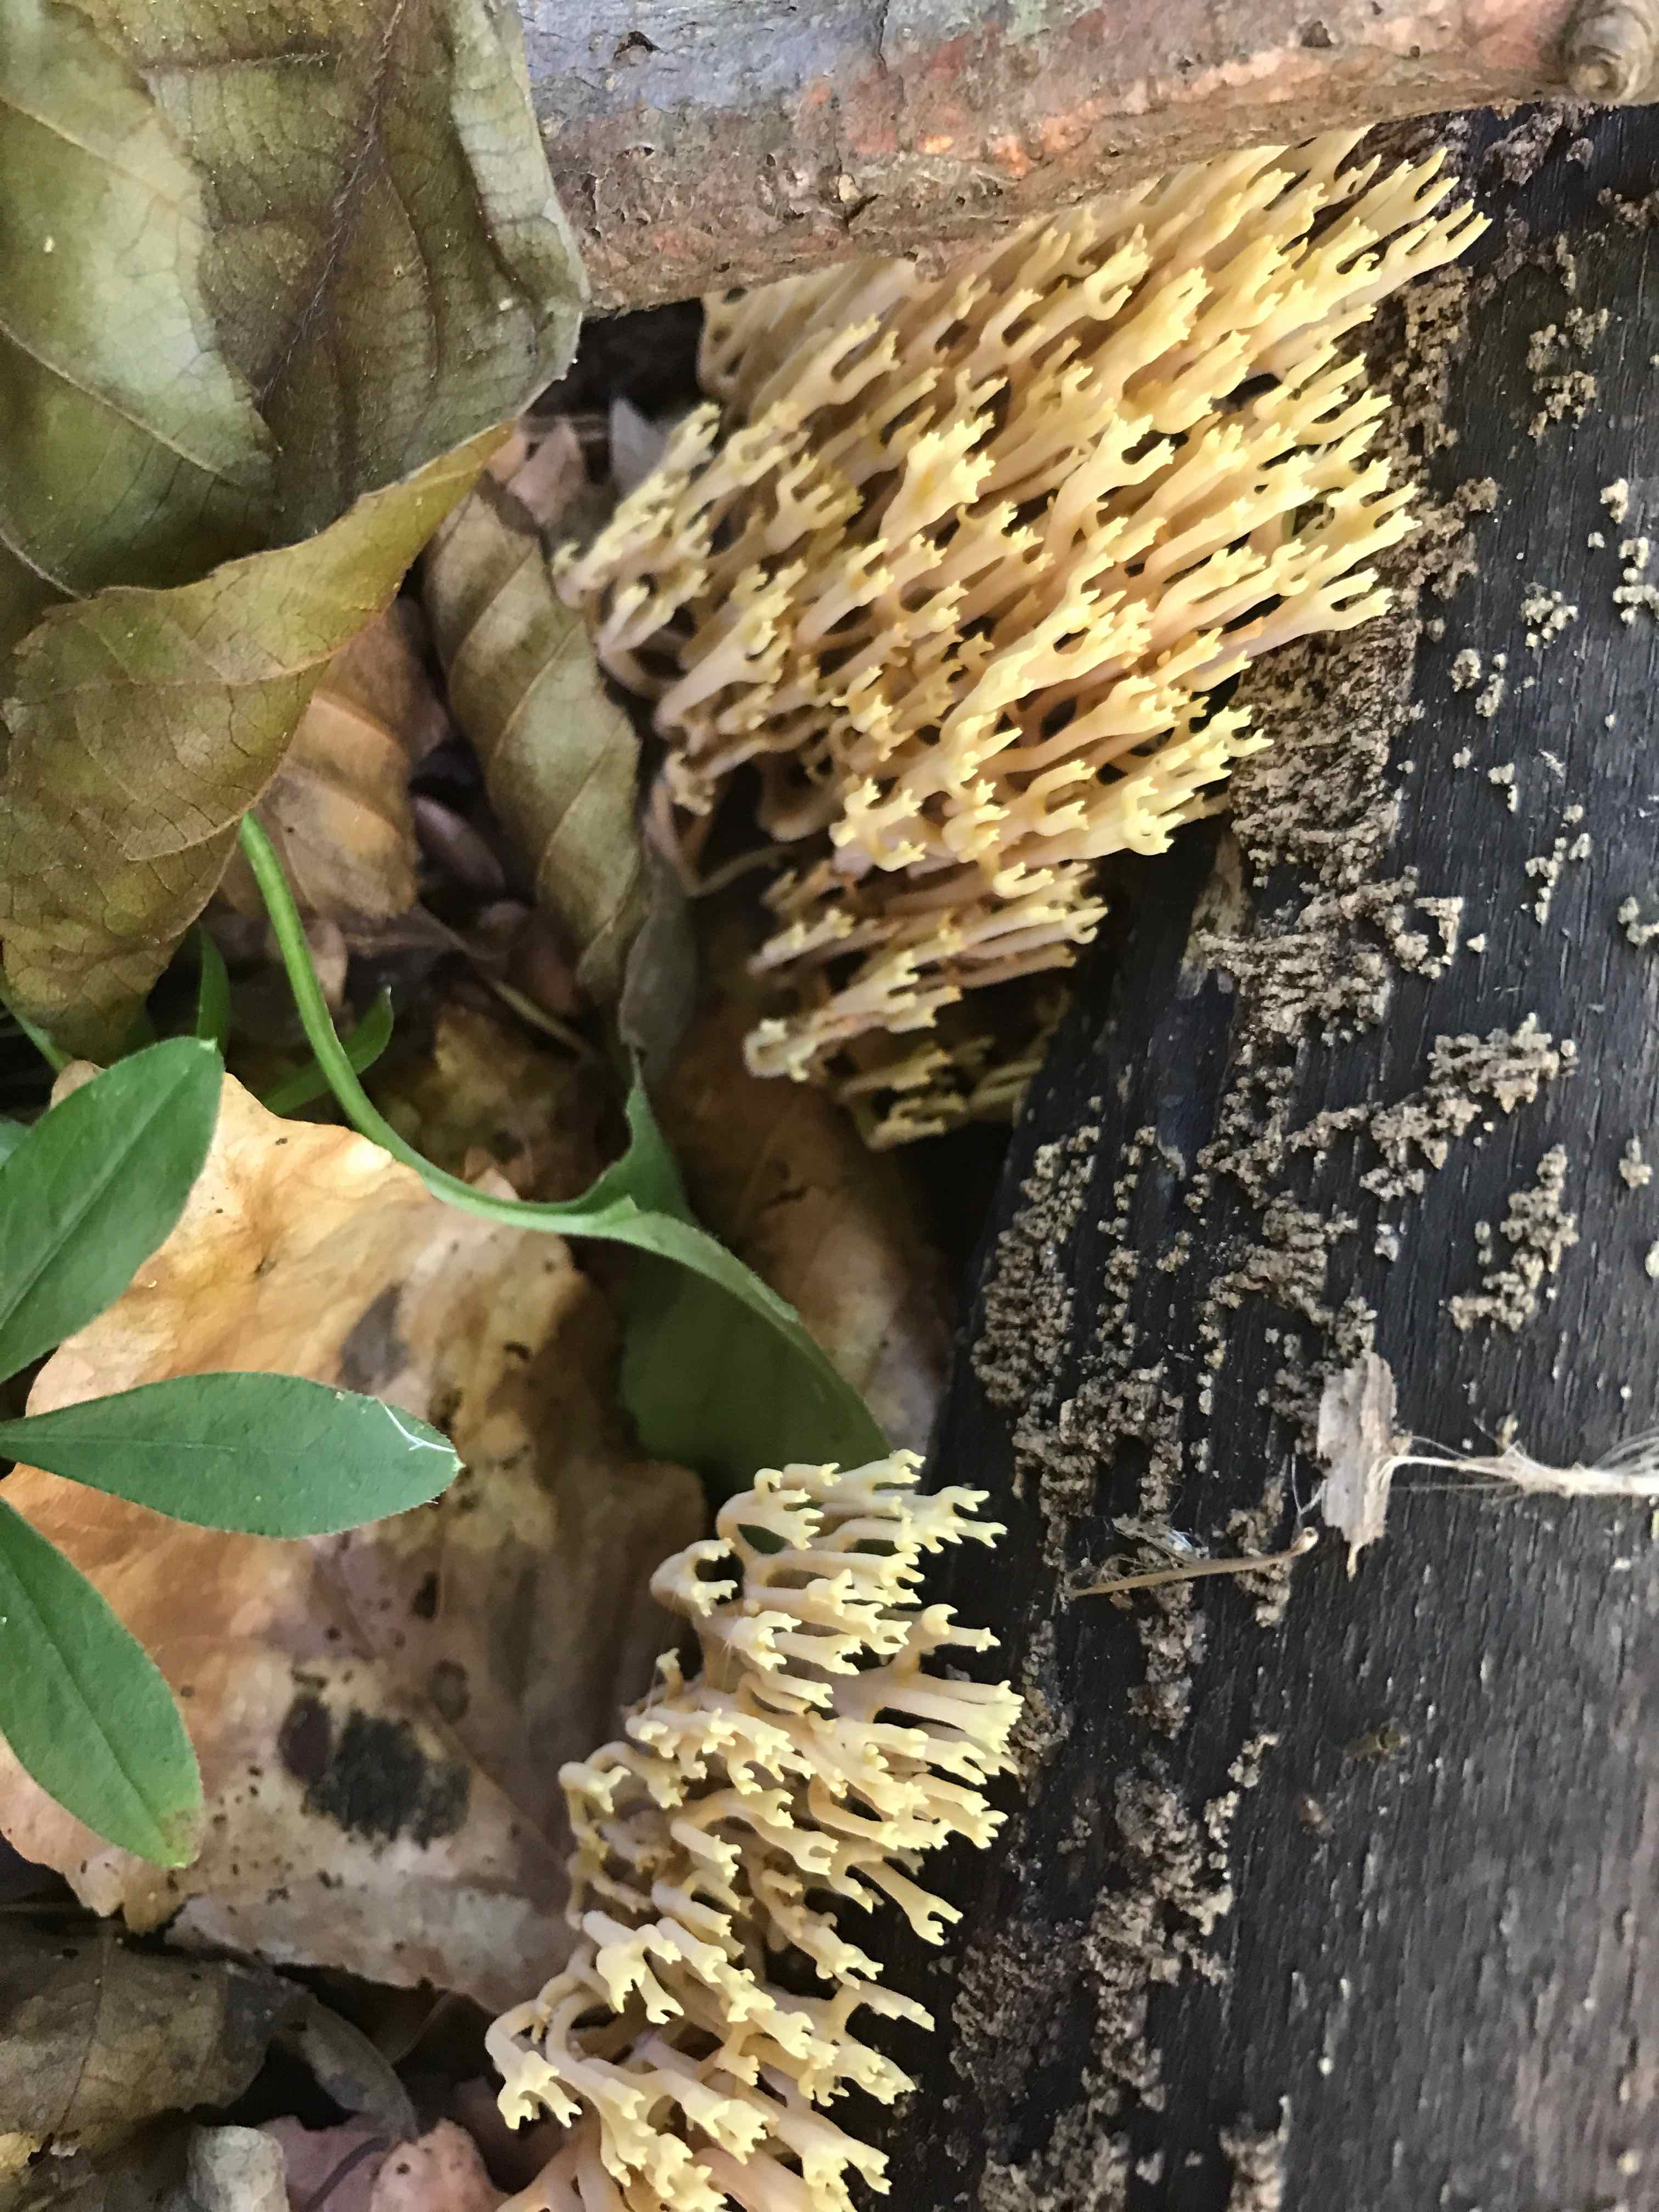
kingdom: Fungi
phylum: Basidiomycota
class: Agaricomycetes
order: Gomphales
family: Gomphaceae
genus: Ramaria
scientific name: Ramaria stricta
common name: rank koralsvamp
